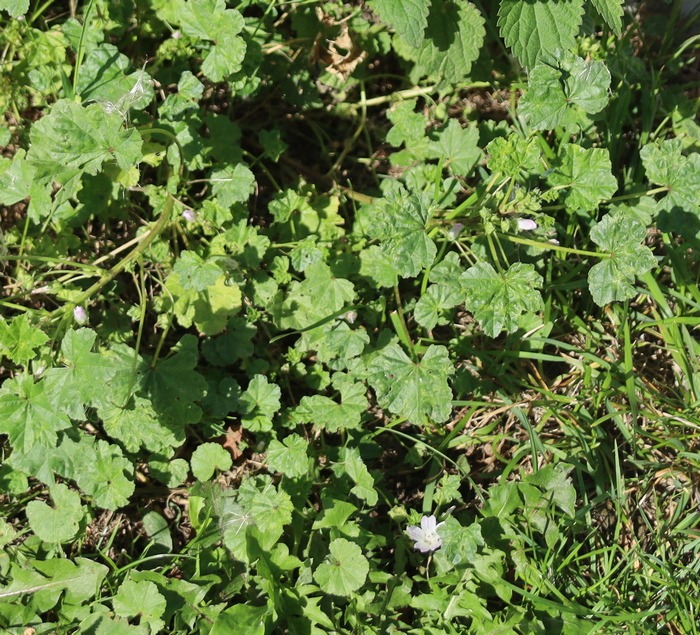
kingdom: Plantae
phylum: Tracheophyta
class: Magnoliopsida
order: Malvales
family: Malvaceae
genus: Malva
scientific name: Malva neglecta
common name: Rundbladet katost
